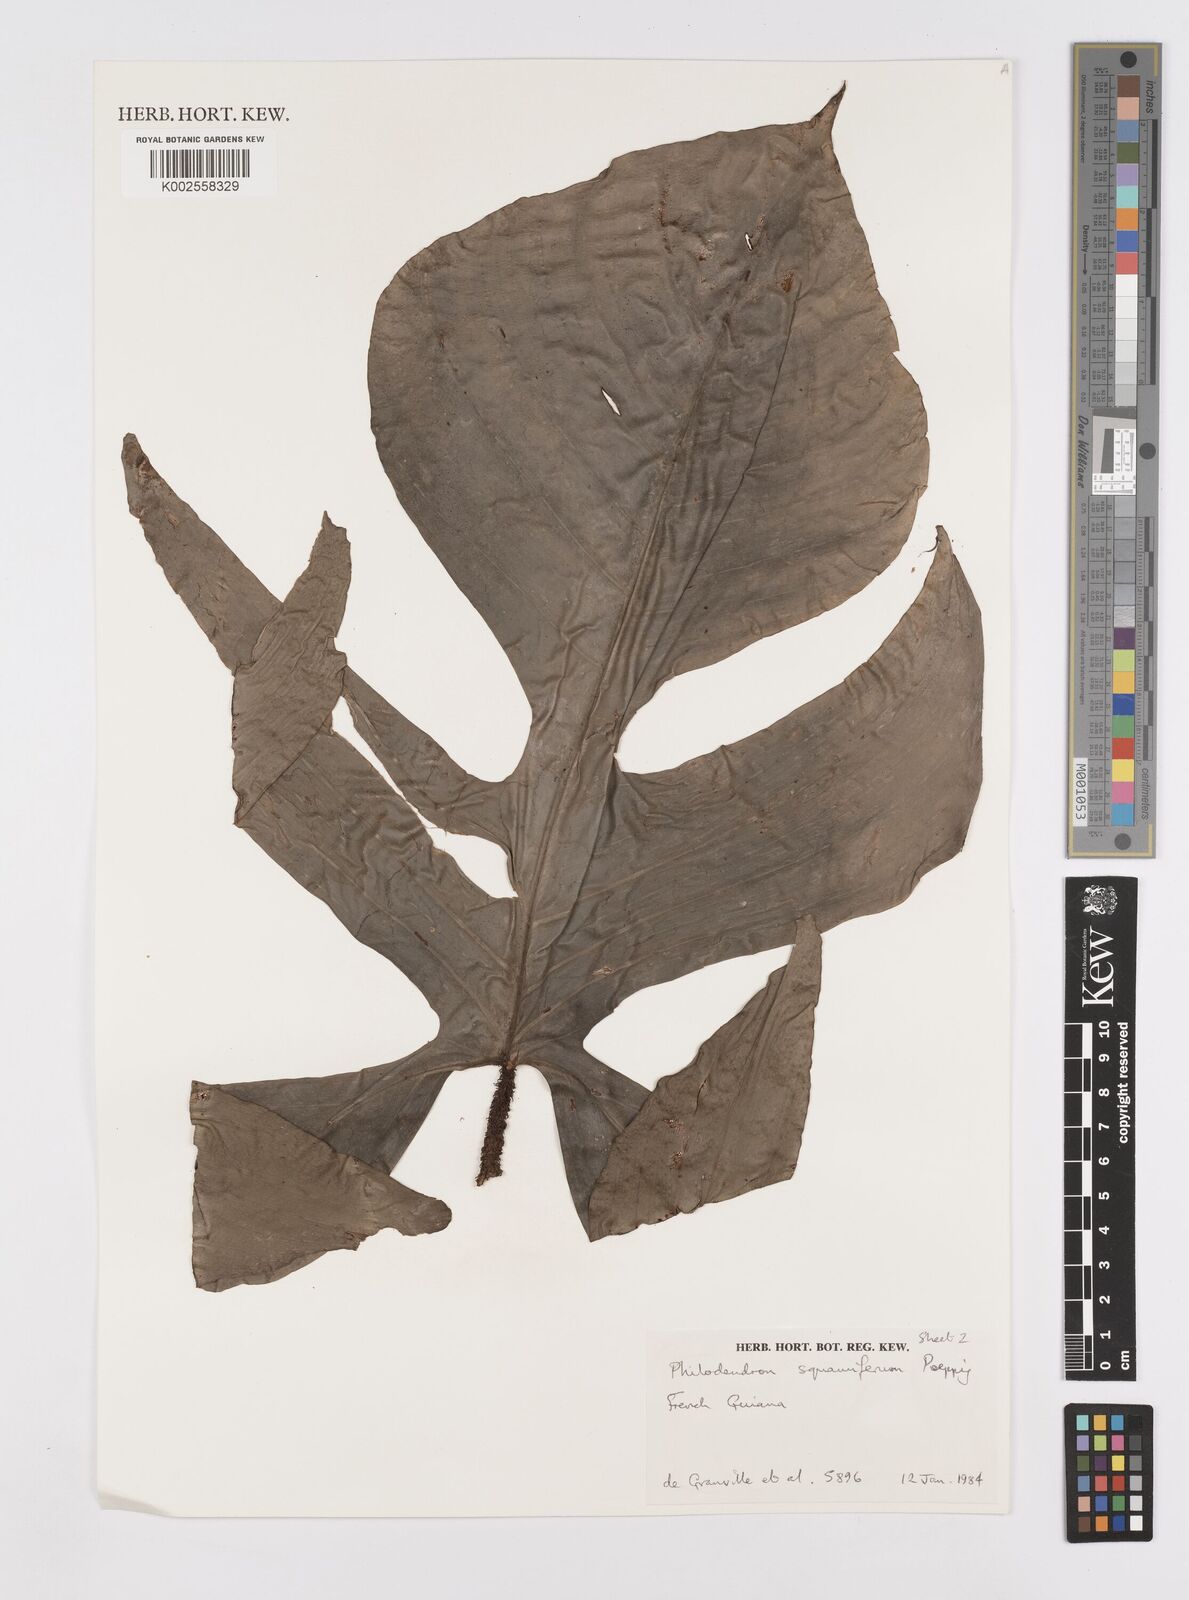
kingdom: Plantae
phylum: Tracheophyta
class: Liliopsida
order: Alismatales
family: Araceae
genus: Philodendron
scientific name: Philodendron squamiferum
